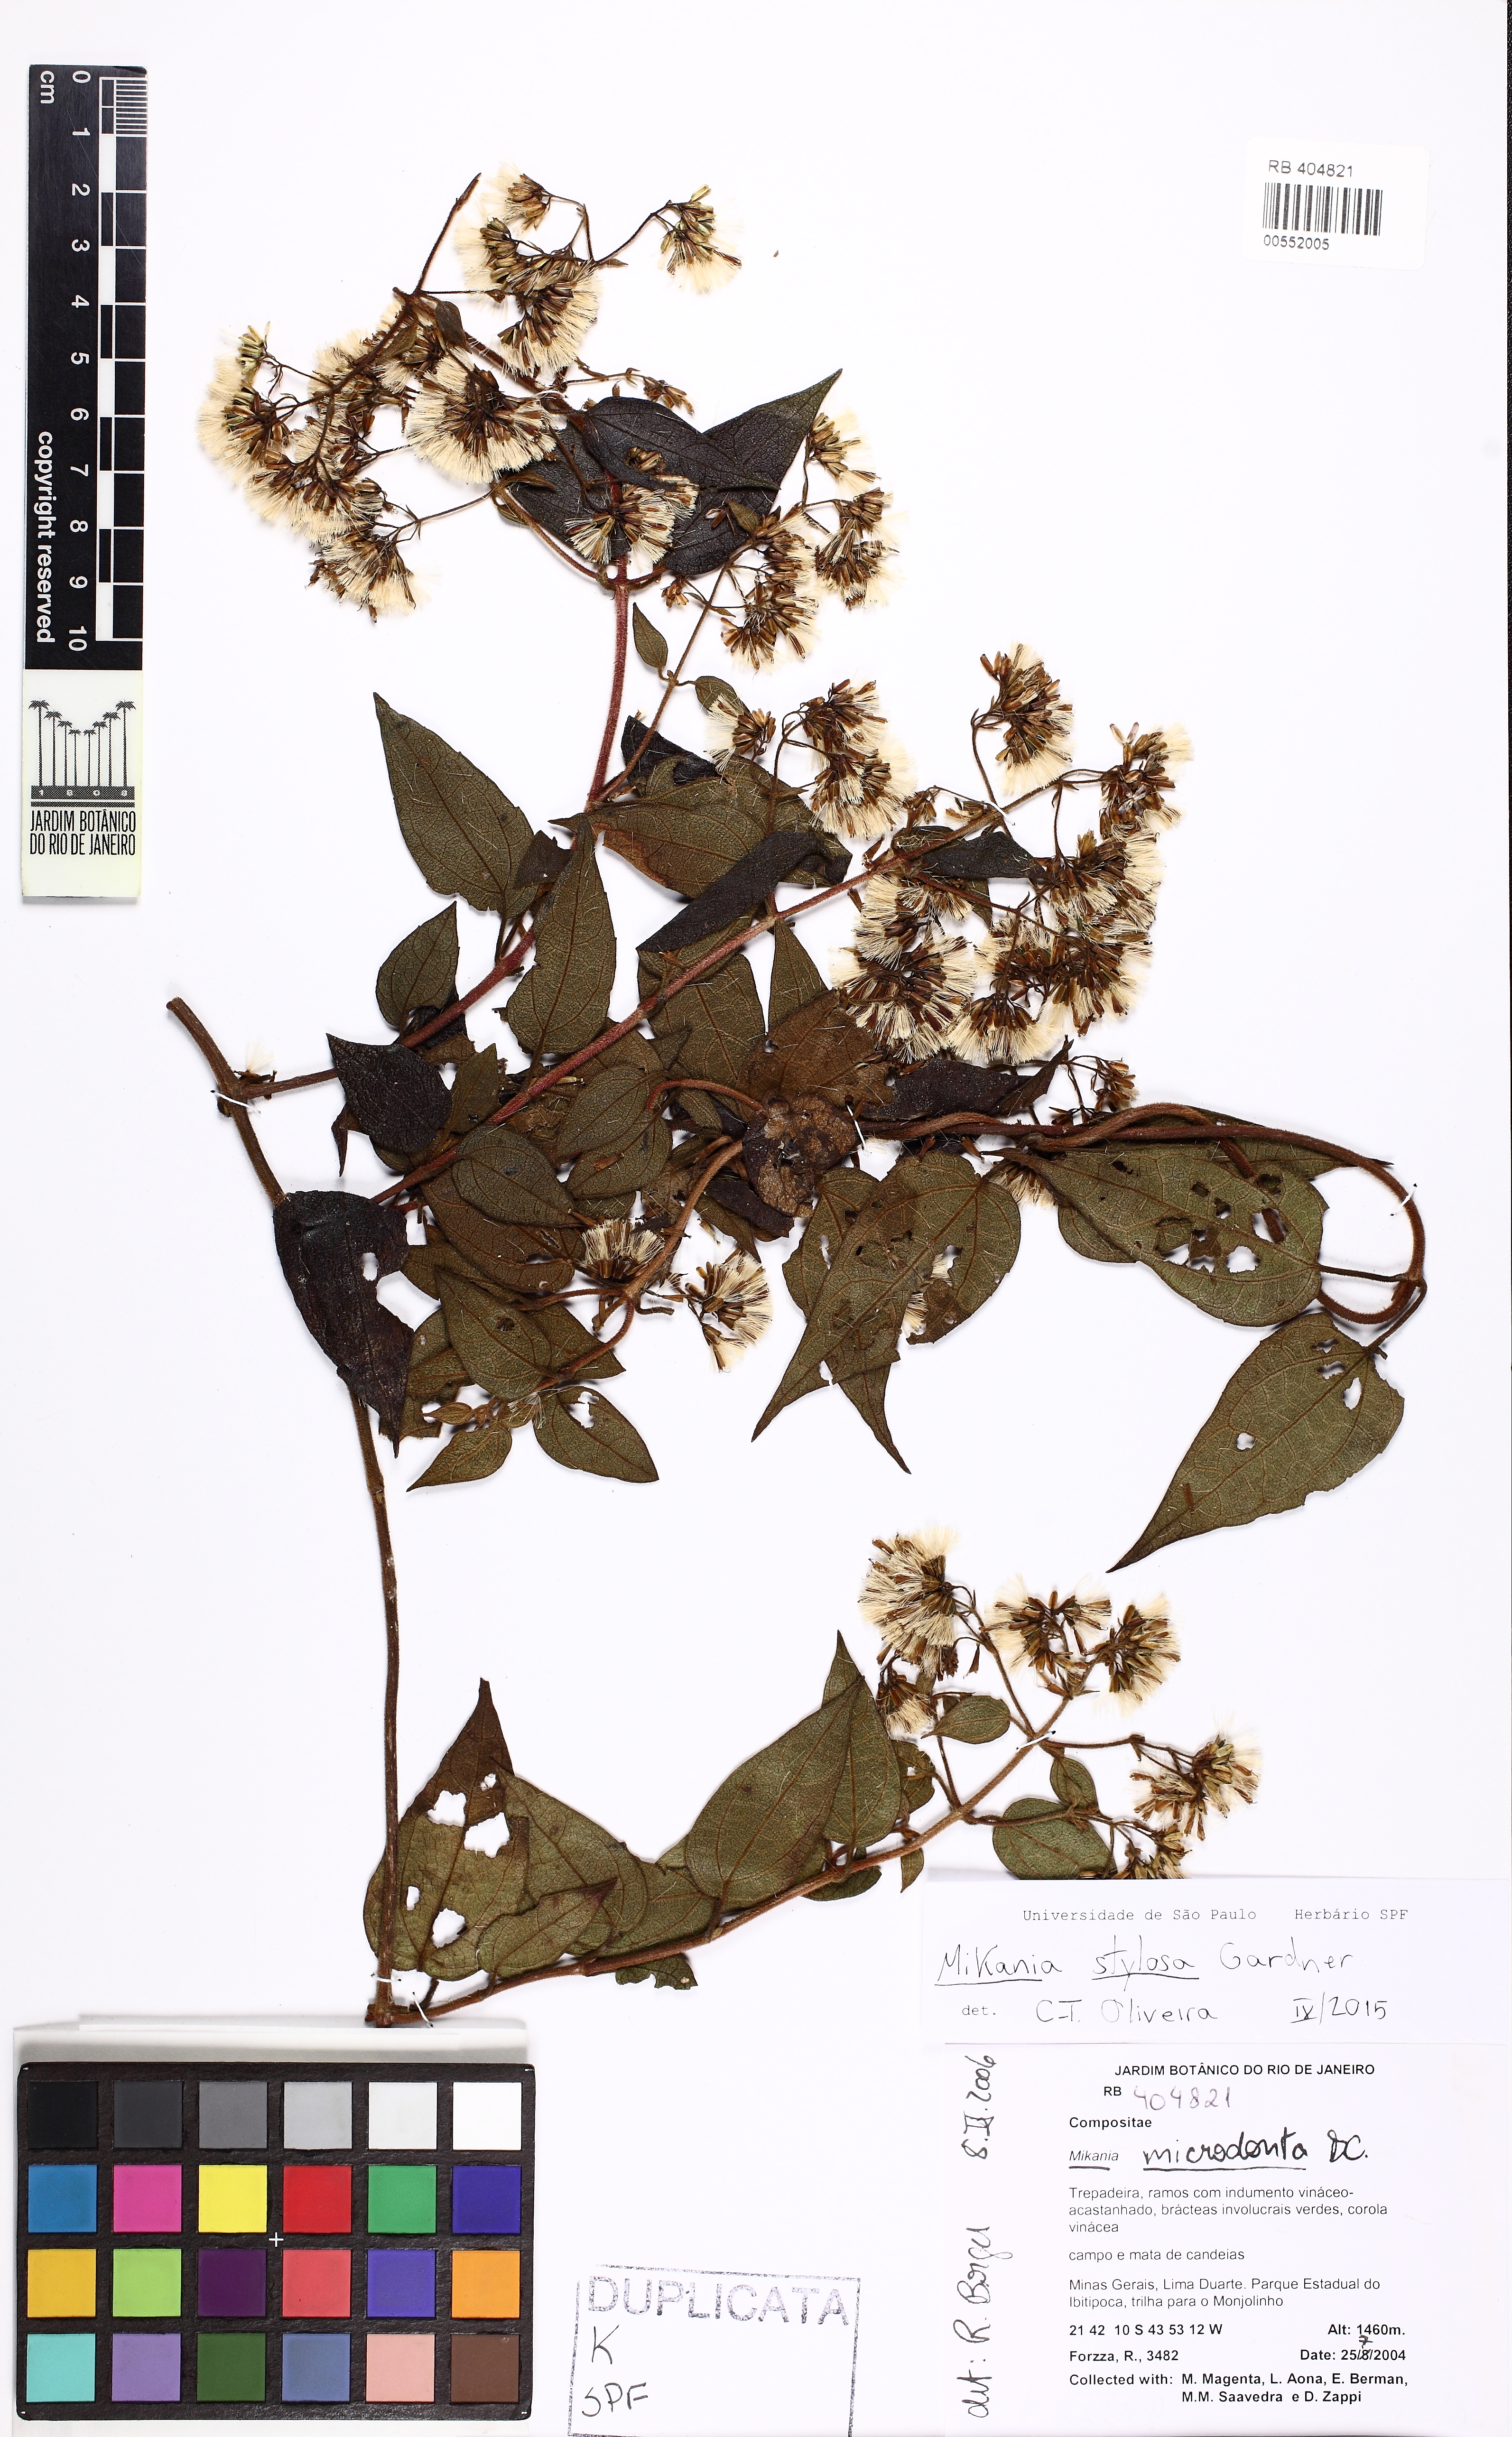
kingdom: Plantae
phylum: Tracheophyta
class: Magnoliopsida
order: Asterales
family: Asteraceae
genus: Mikania
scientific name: Mikania stylosa
